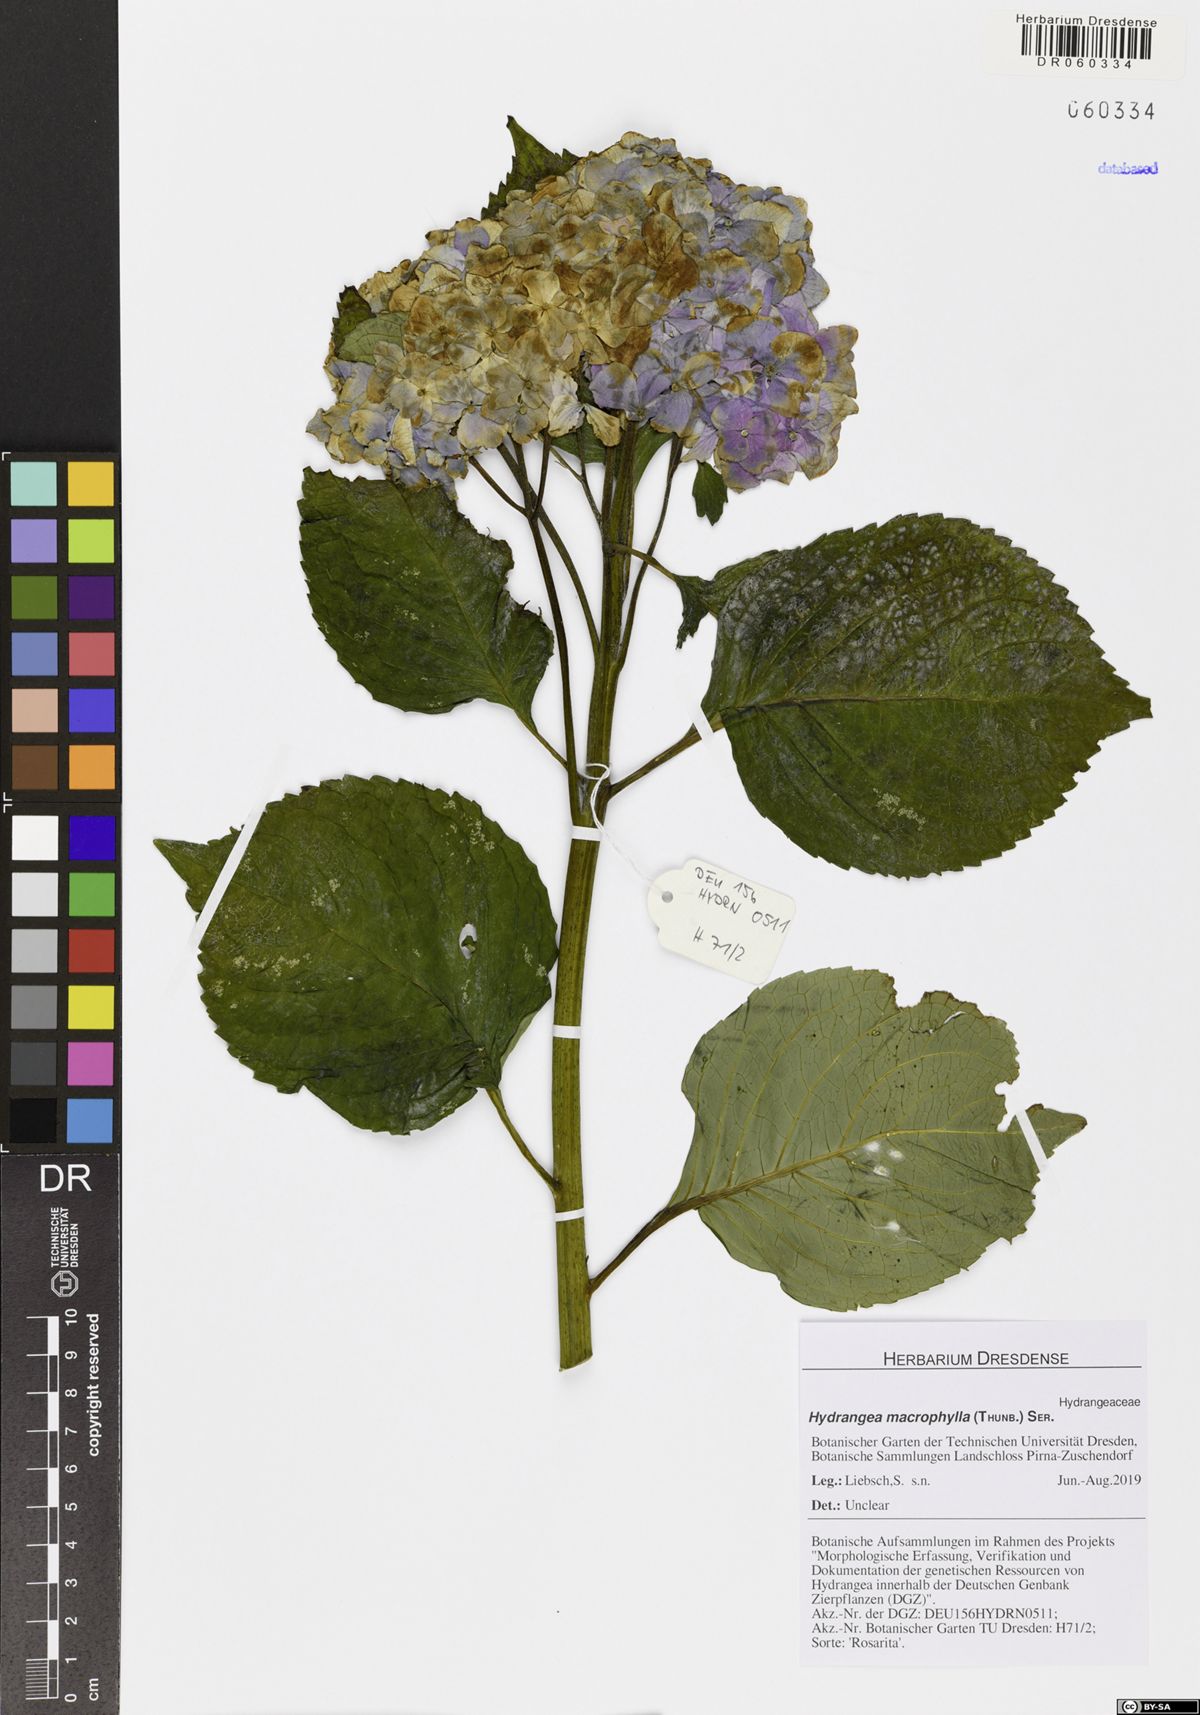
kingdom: Plantae
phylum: Tracheophyta
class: Magnoliopsida
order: Cornales
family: Hydrangeaceae
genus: Hydrangea
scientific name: Hydrangea macrophylla
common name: Hydrangea
